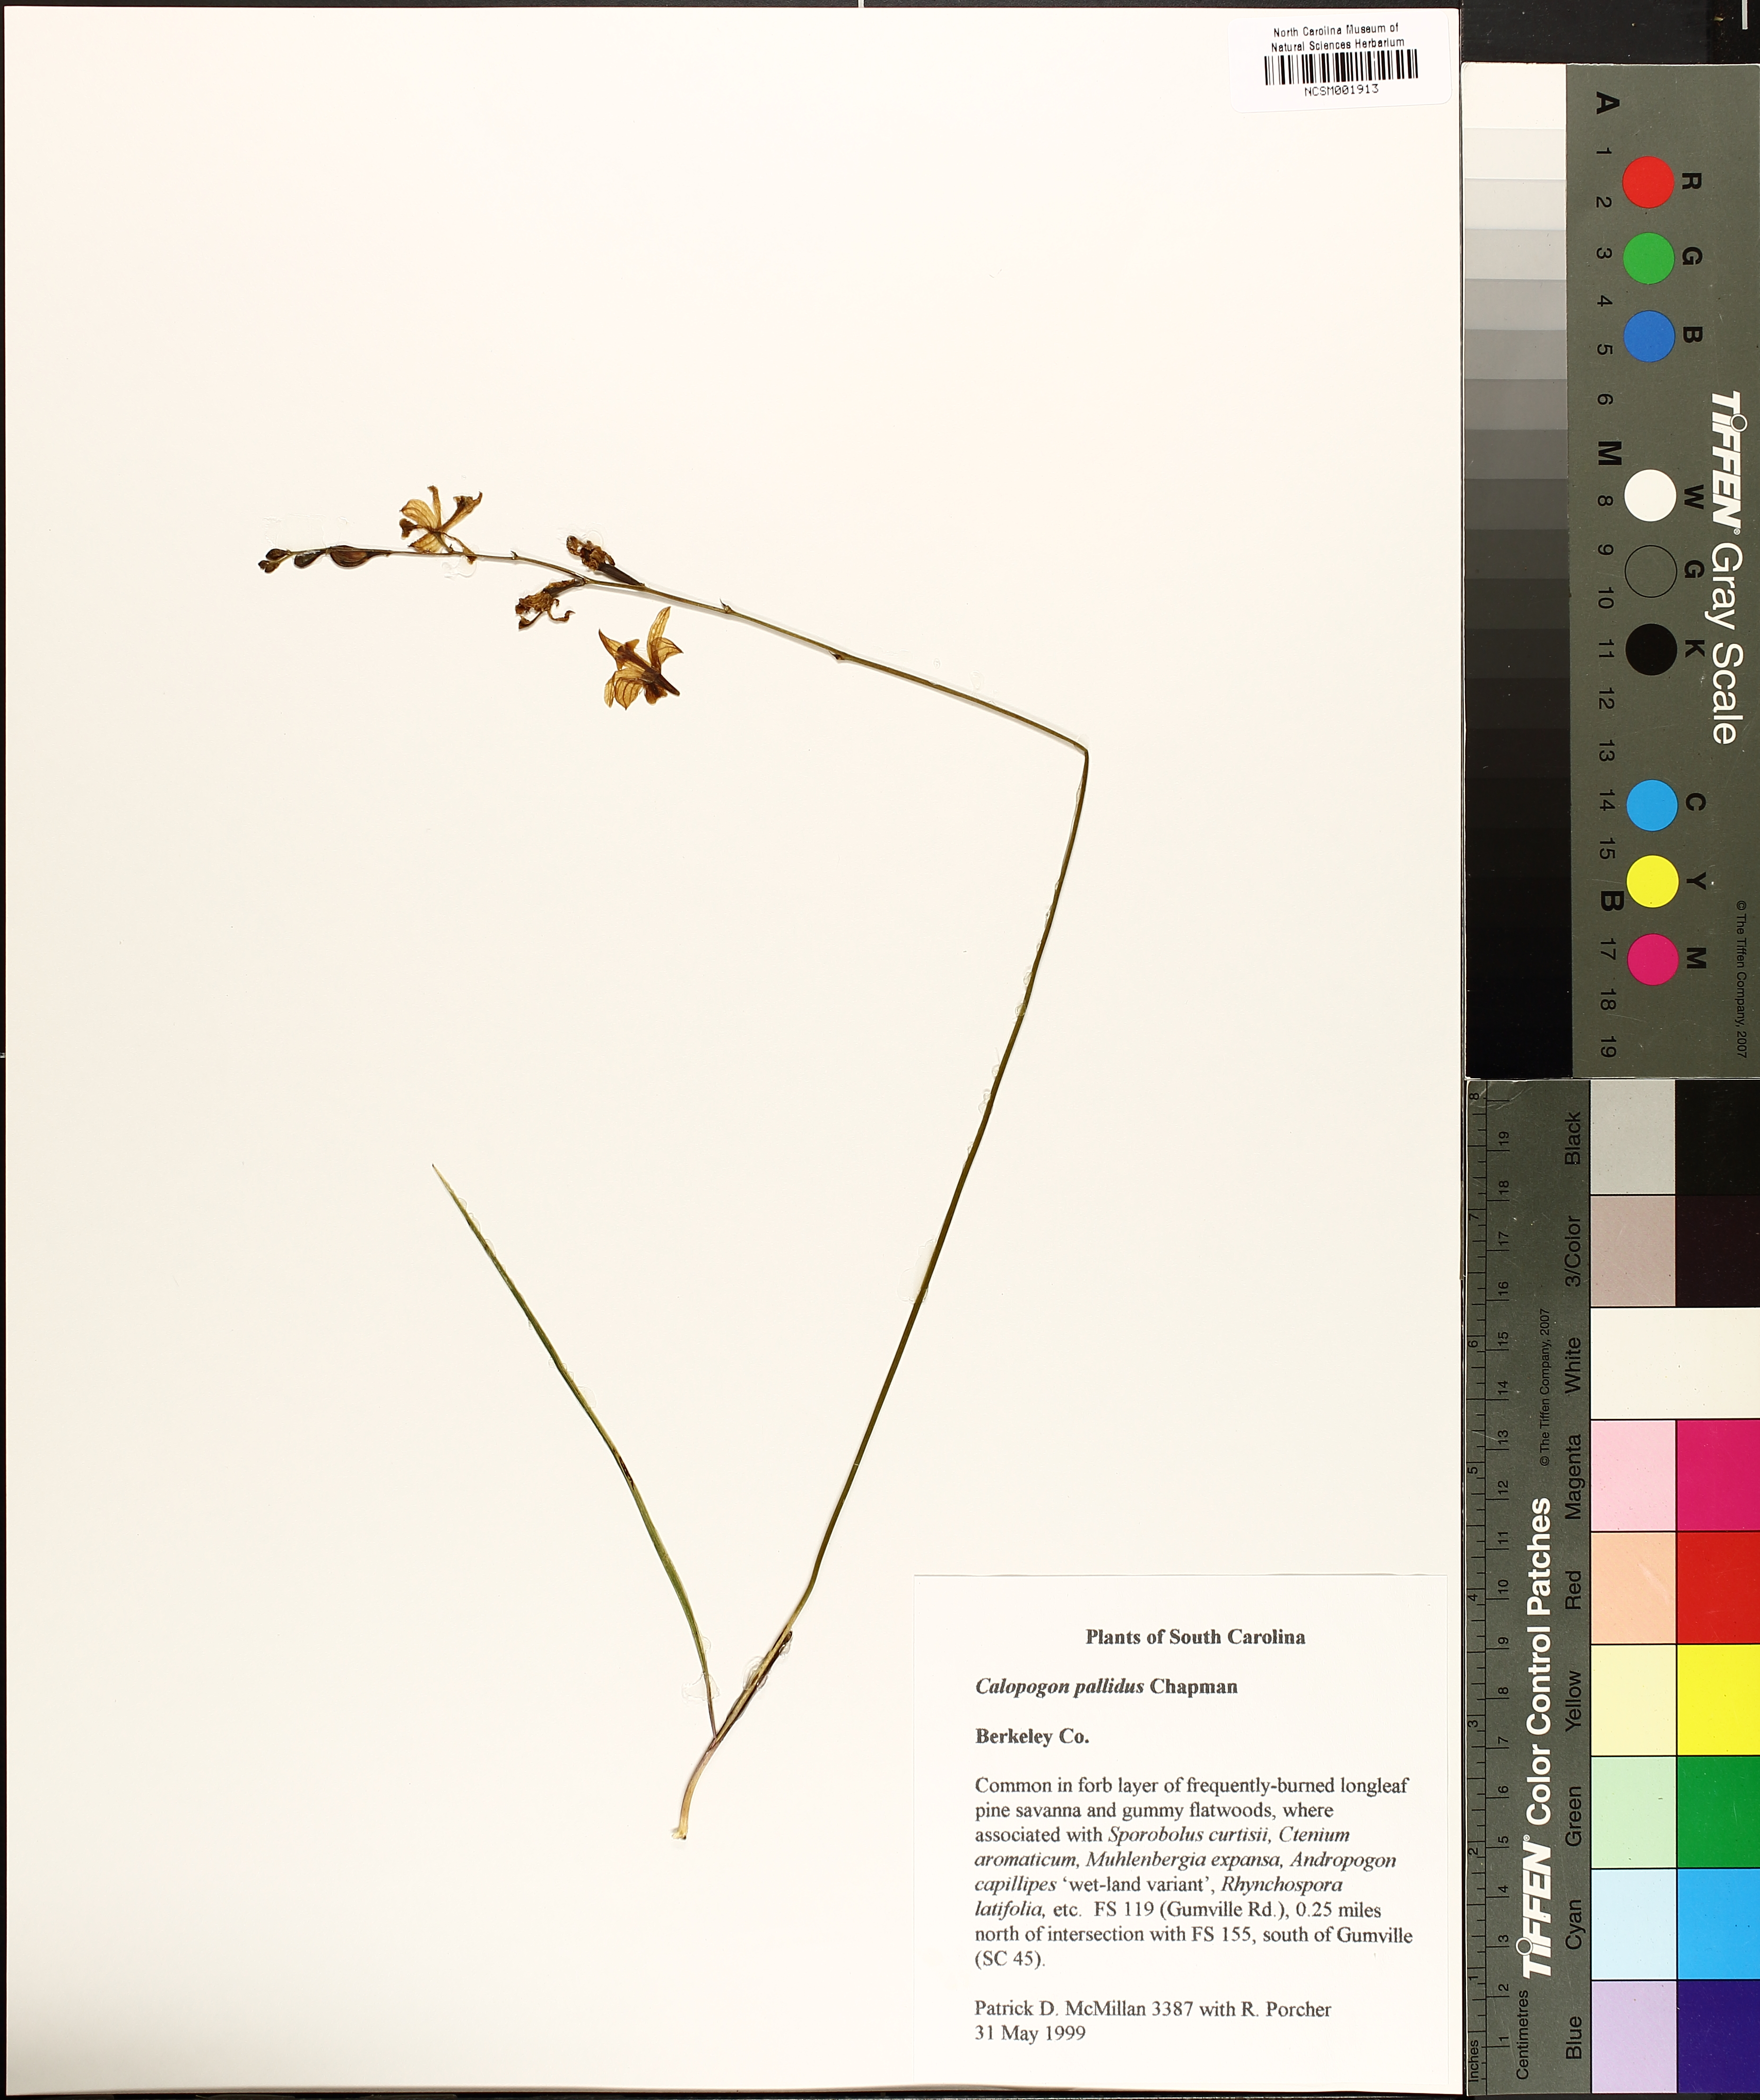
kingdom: Plantae
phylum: Tracheophyta
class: Liliopsida
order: Asparagales
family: Orchidaceae
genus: Calopogon
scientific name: Calopogon pallidus
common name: Pale grasspink
